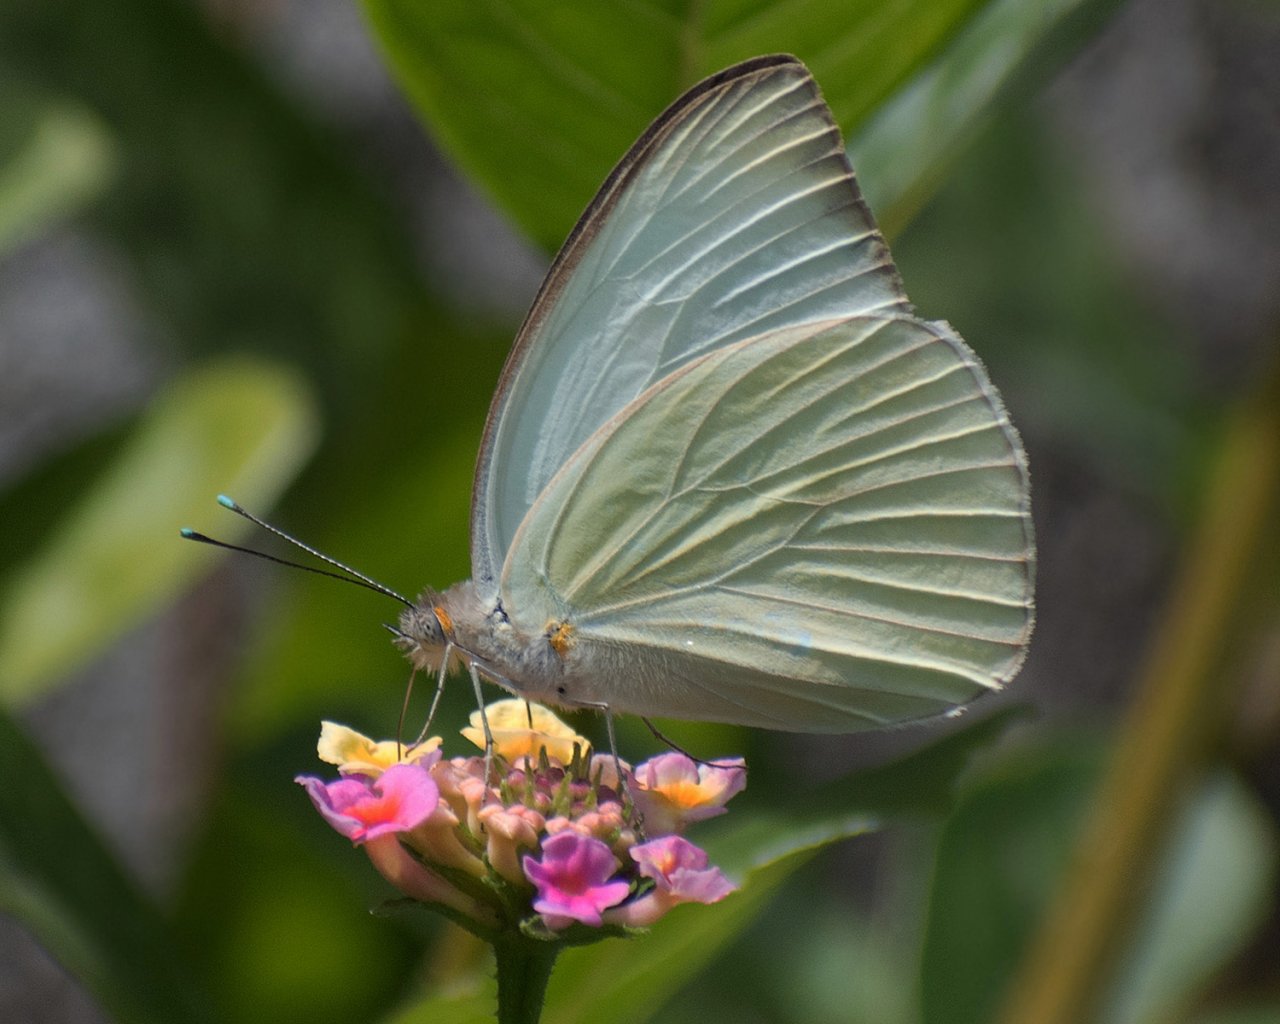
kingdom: Animalia
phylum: Arthropoda
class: Insecta
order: Lepidoptera
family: Pieridae
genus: Ascia
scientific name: Ascia monuste
